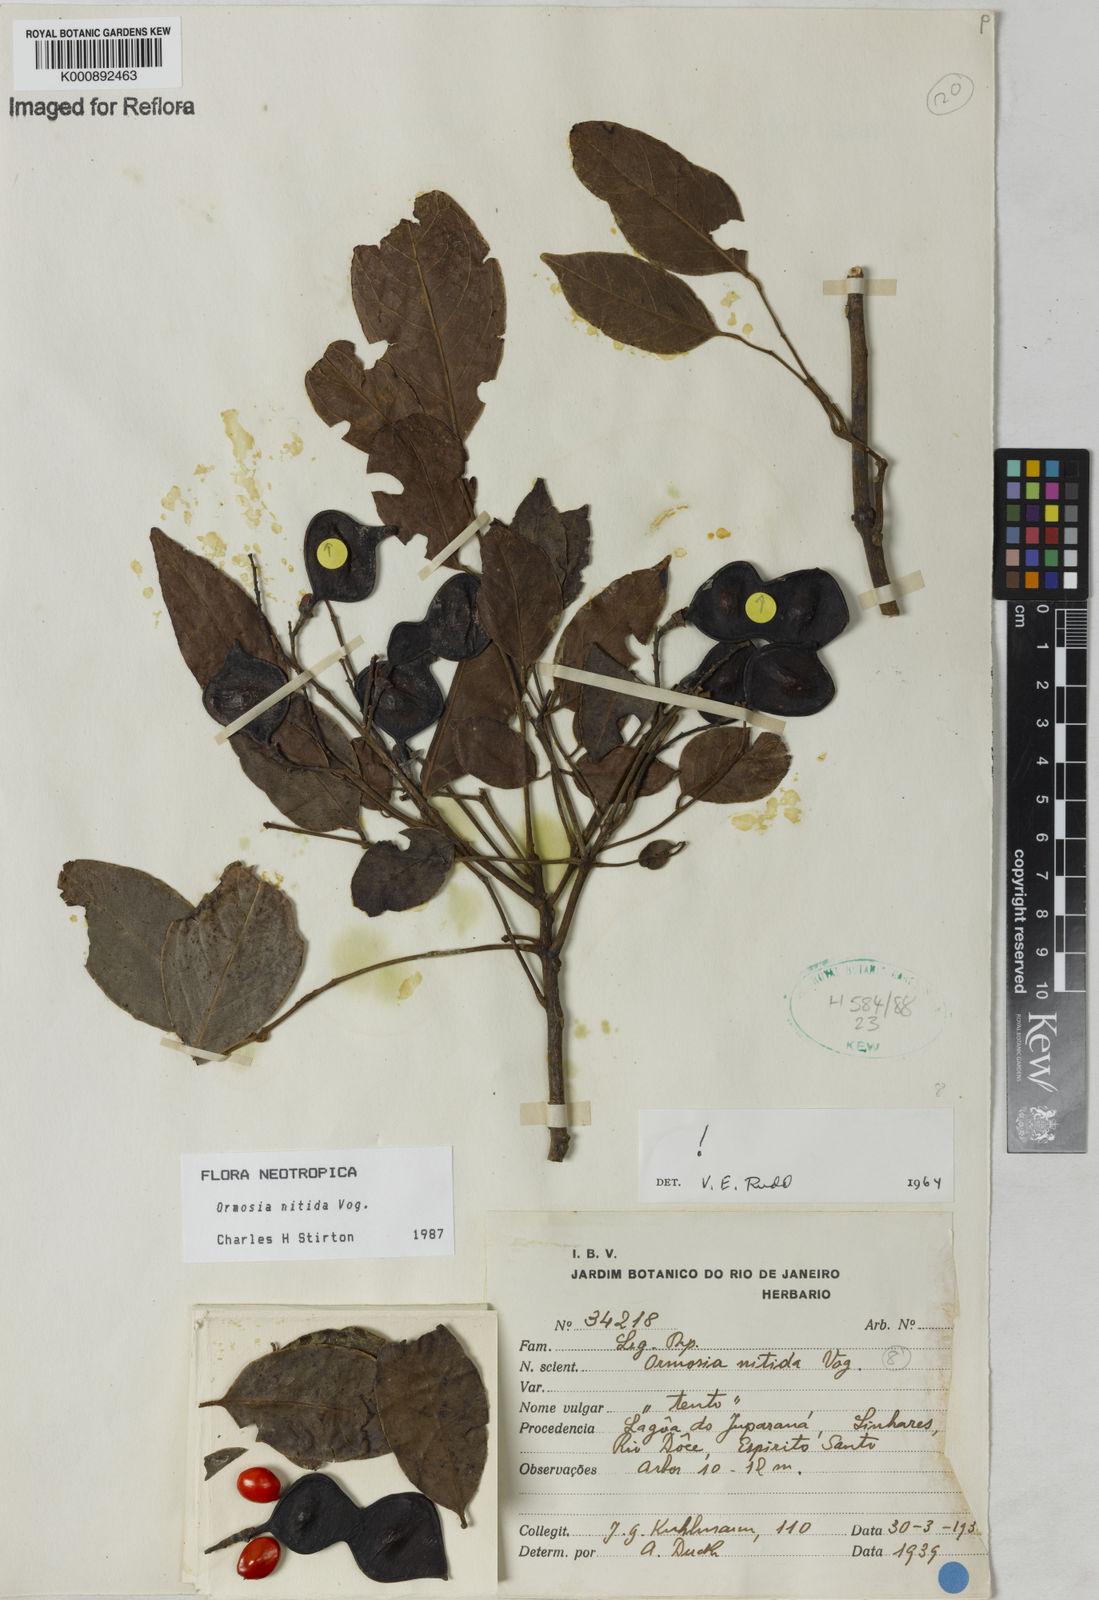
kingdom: Plantae
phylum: Tracheophyta
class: Magnoliopsida
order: Fabales
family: Fabaceae
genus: Ormosia
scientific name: Ormosia nitida
